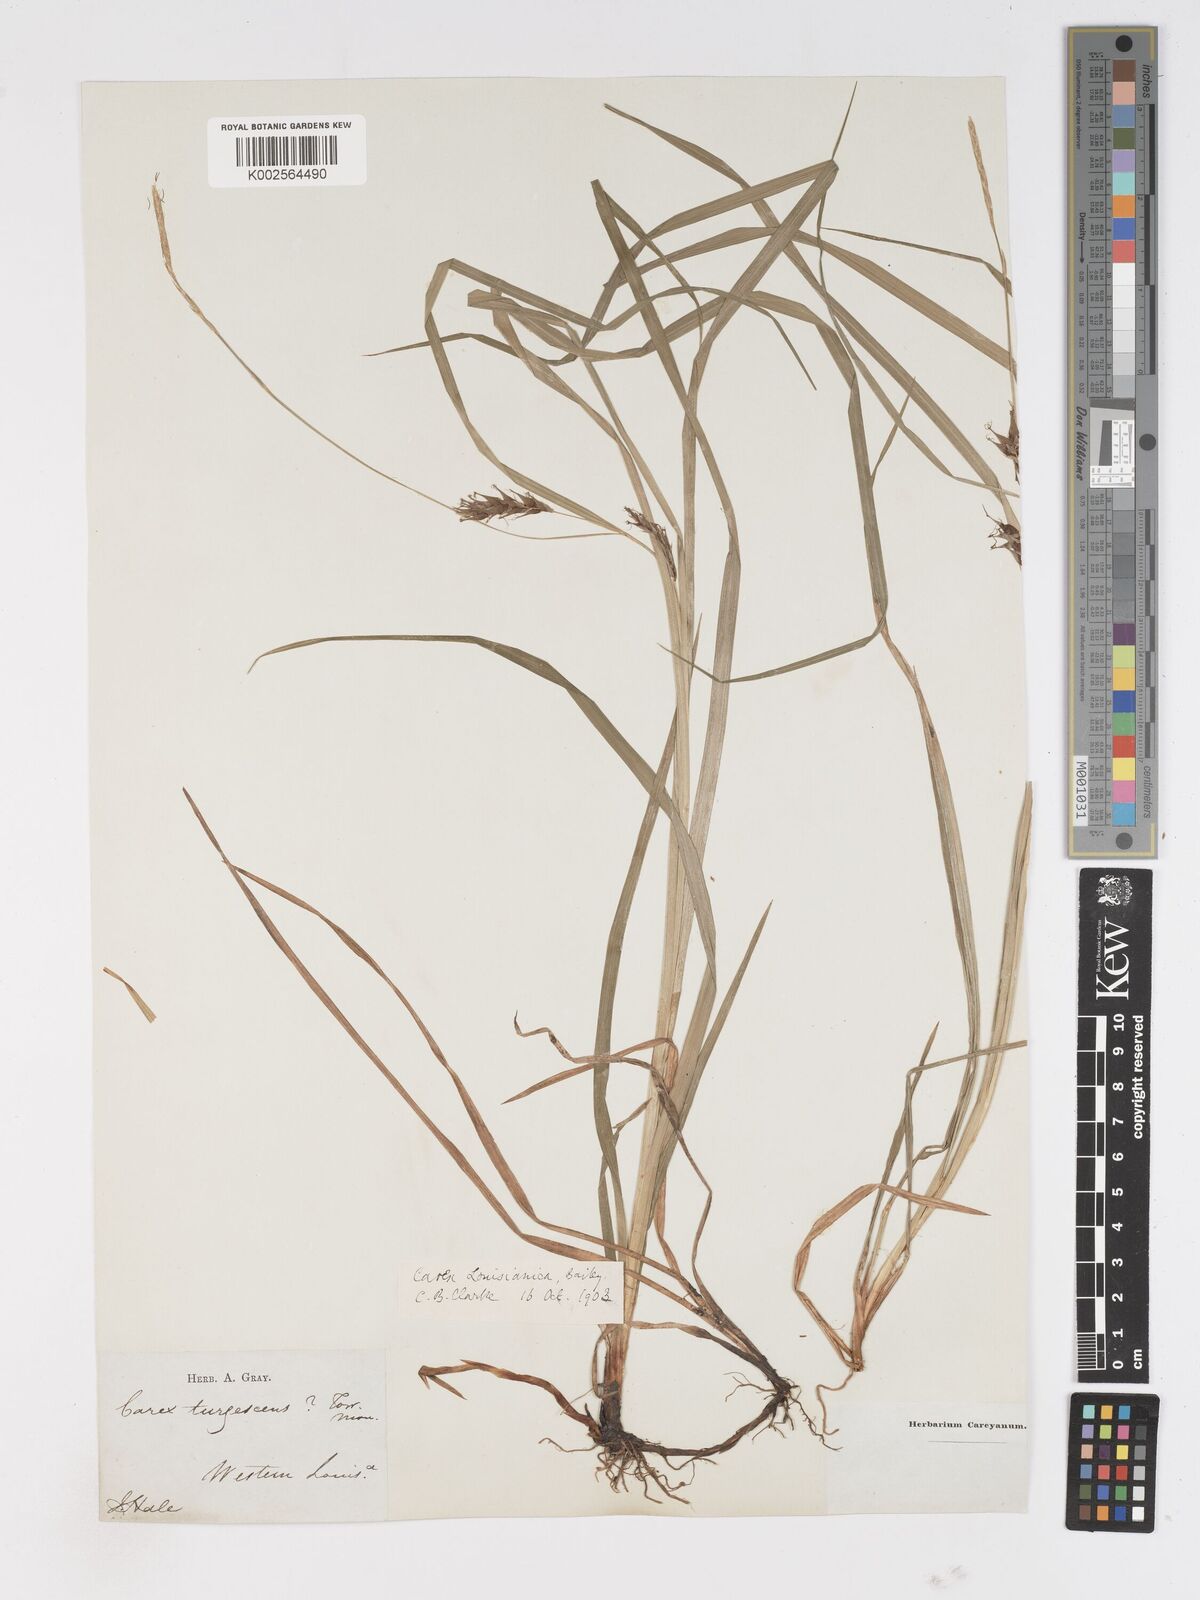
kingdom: Plantae
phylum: Tracheophyta
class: Liliopsida
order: Poales
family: Cyperaceae
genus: Carex
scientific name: Carex louisianica
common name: Louisiana sedge
